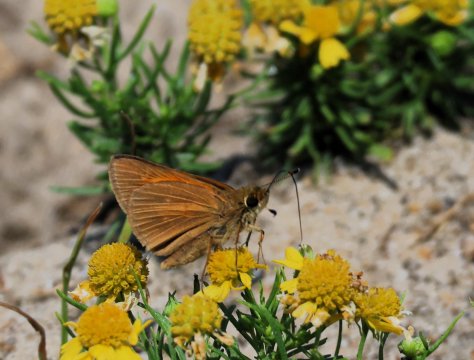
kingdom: Animalia
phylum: Arthropoda
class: Insecta
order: Lepidoptera
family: Hesperiidae
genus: Poanes
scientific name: Poanes aaroni
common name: Aaron's Skipper
